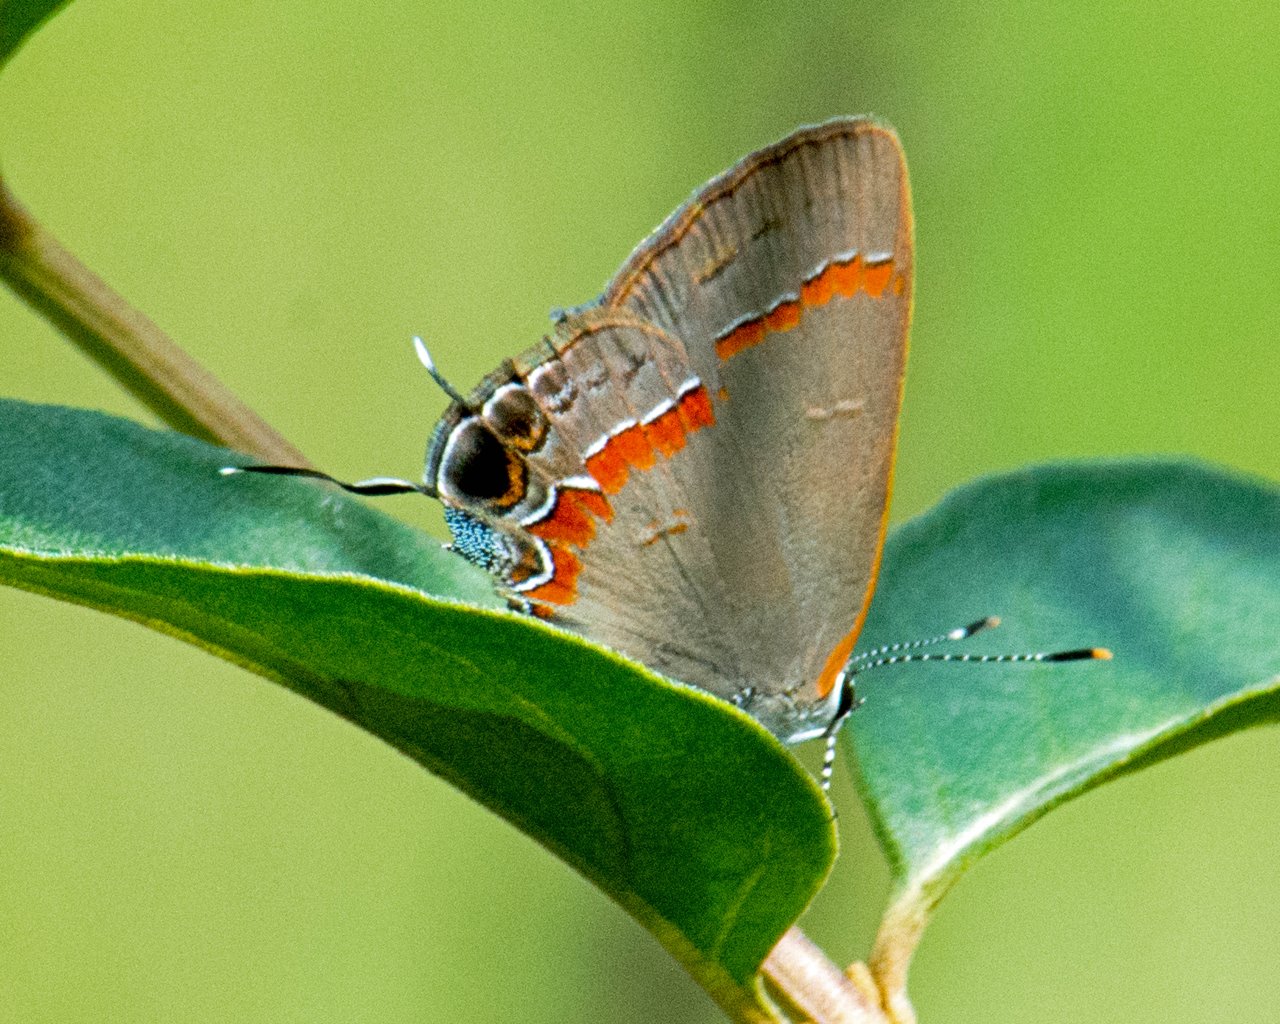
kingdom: Animalia
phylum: Arthropoda
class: Insecta
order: Lepidoptera
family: Lycaenidae
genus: Calycopis
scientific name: Calycopis cecrops
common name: Red-banded Hairstreak
